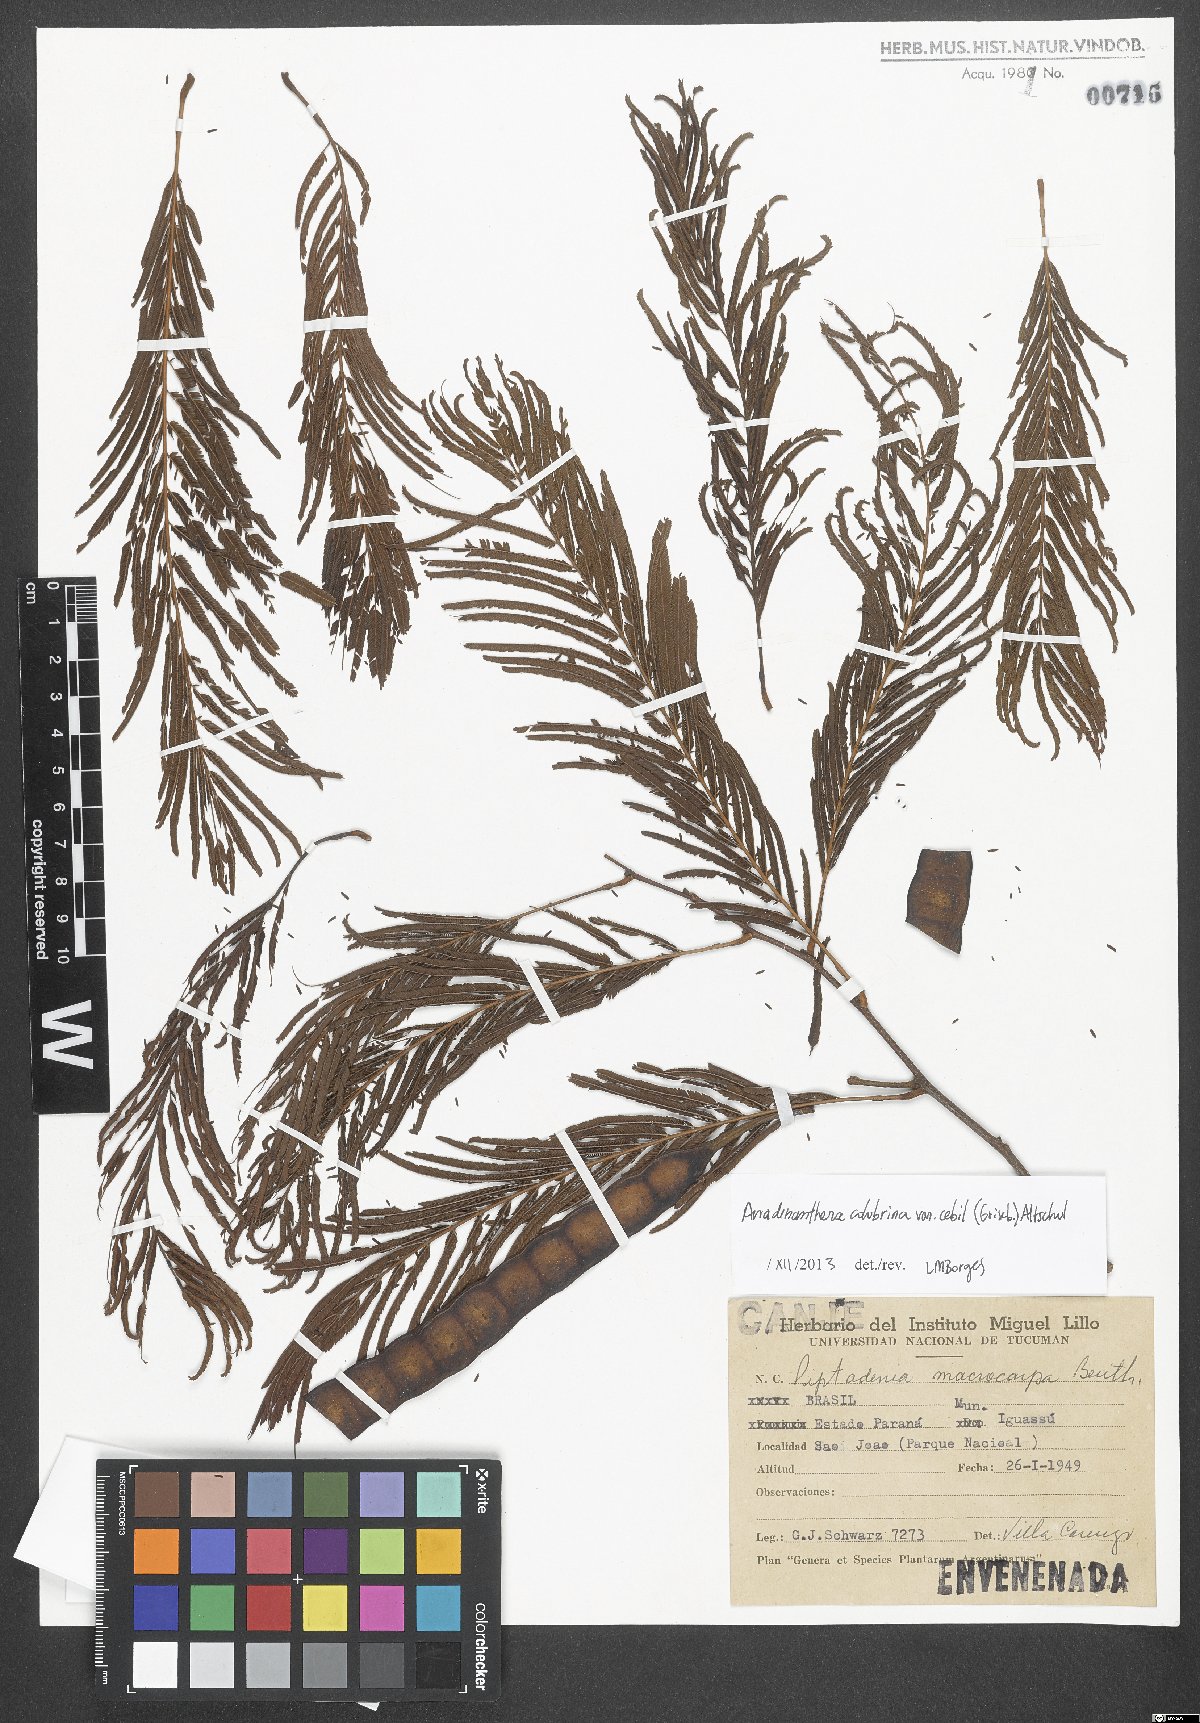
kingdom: Plantae
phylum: Tracheophyta
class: Magnoliopsida
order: Fabales
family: Fabaceae
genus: Anadenanthera
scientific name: Anadenanthera colubrina
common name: Curupay
